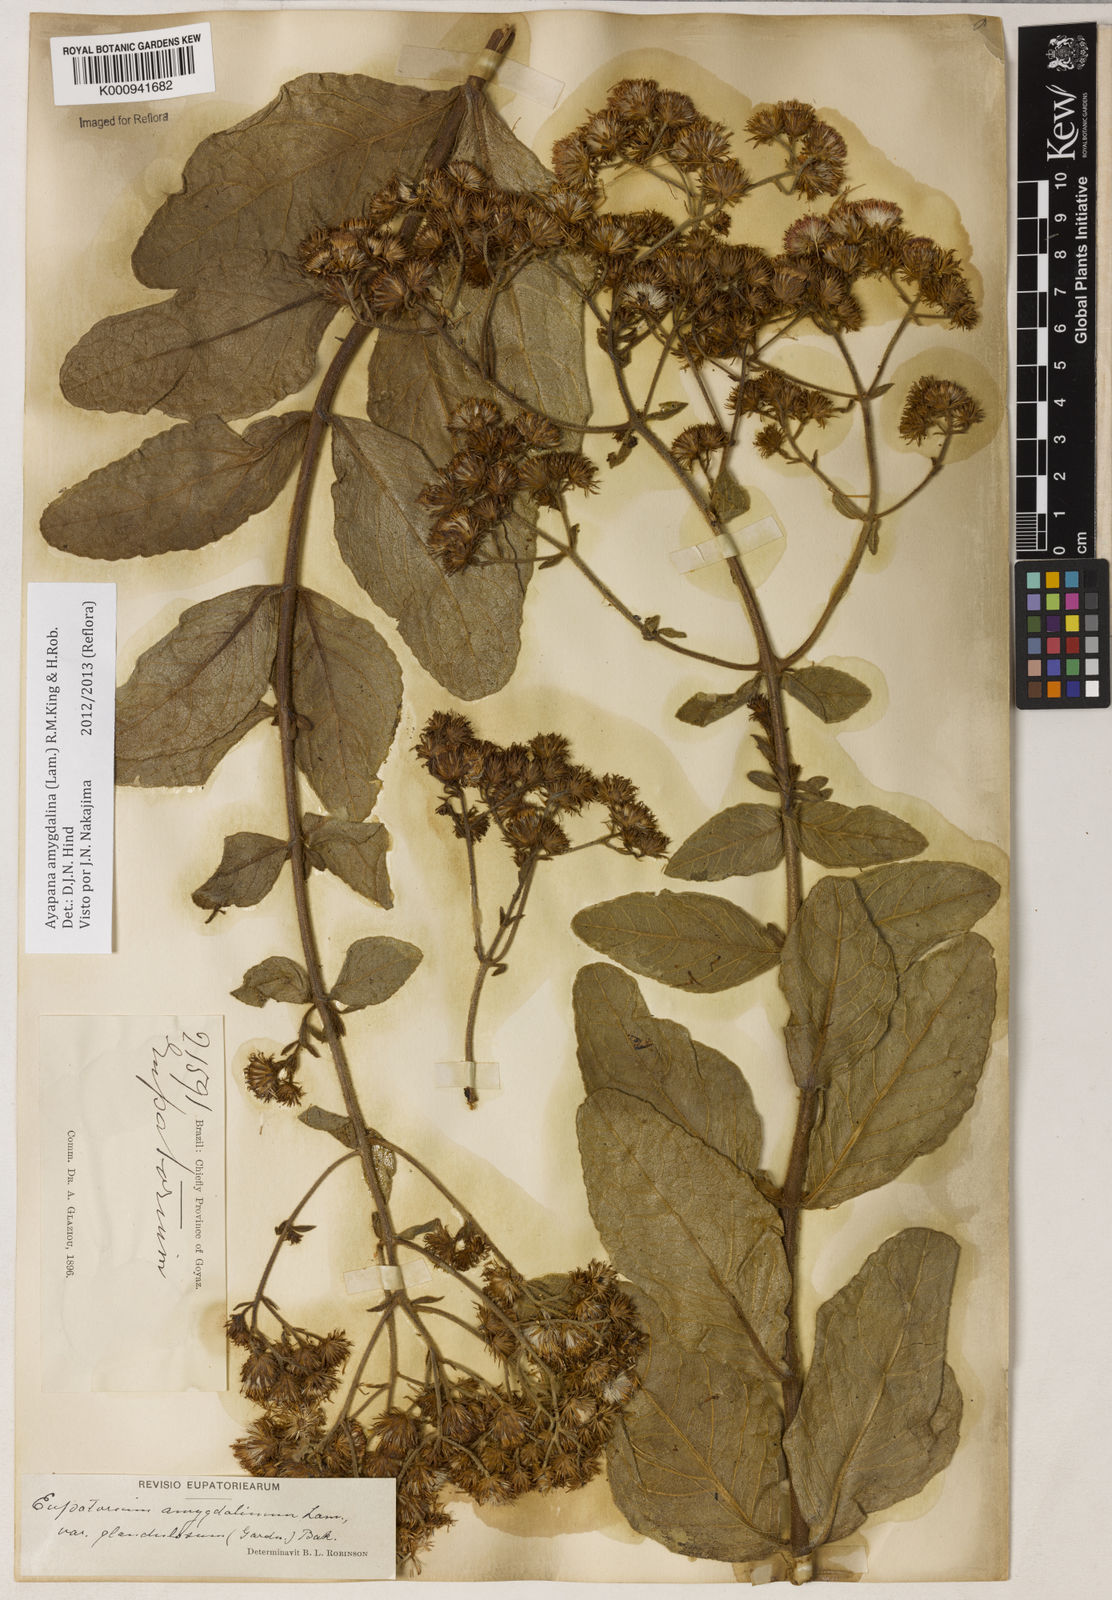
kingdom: Plantae
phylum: Tracheophyta
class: Magnoliopsida
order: Asterales
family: Asteraceae
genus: Ayapana
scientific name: Ayapana amygdalina
